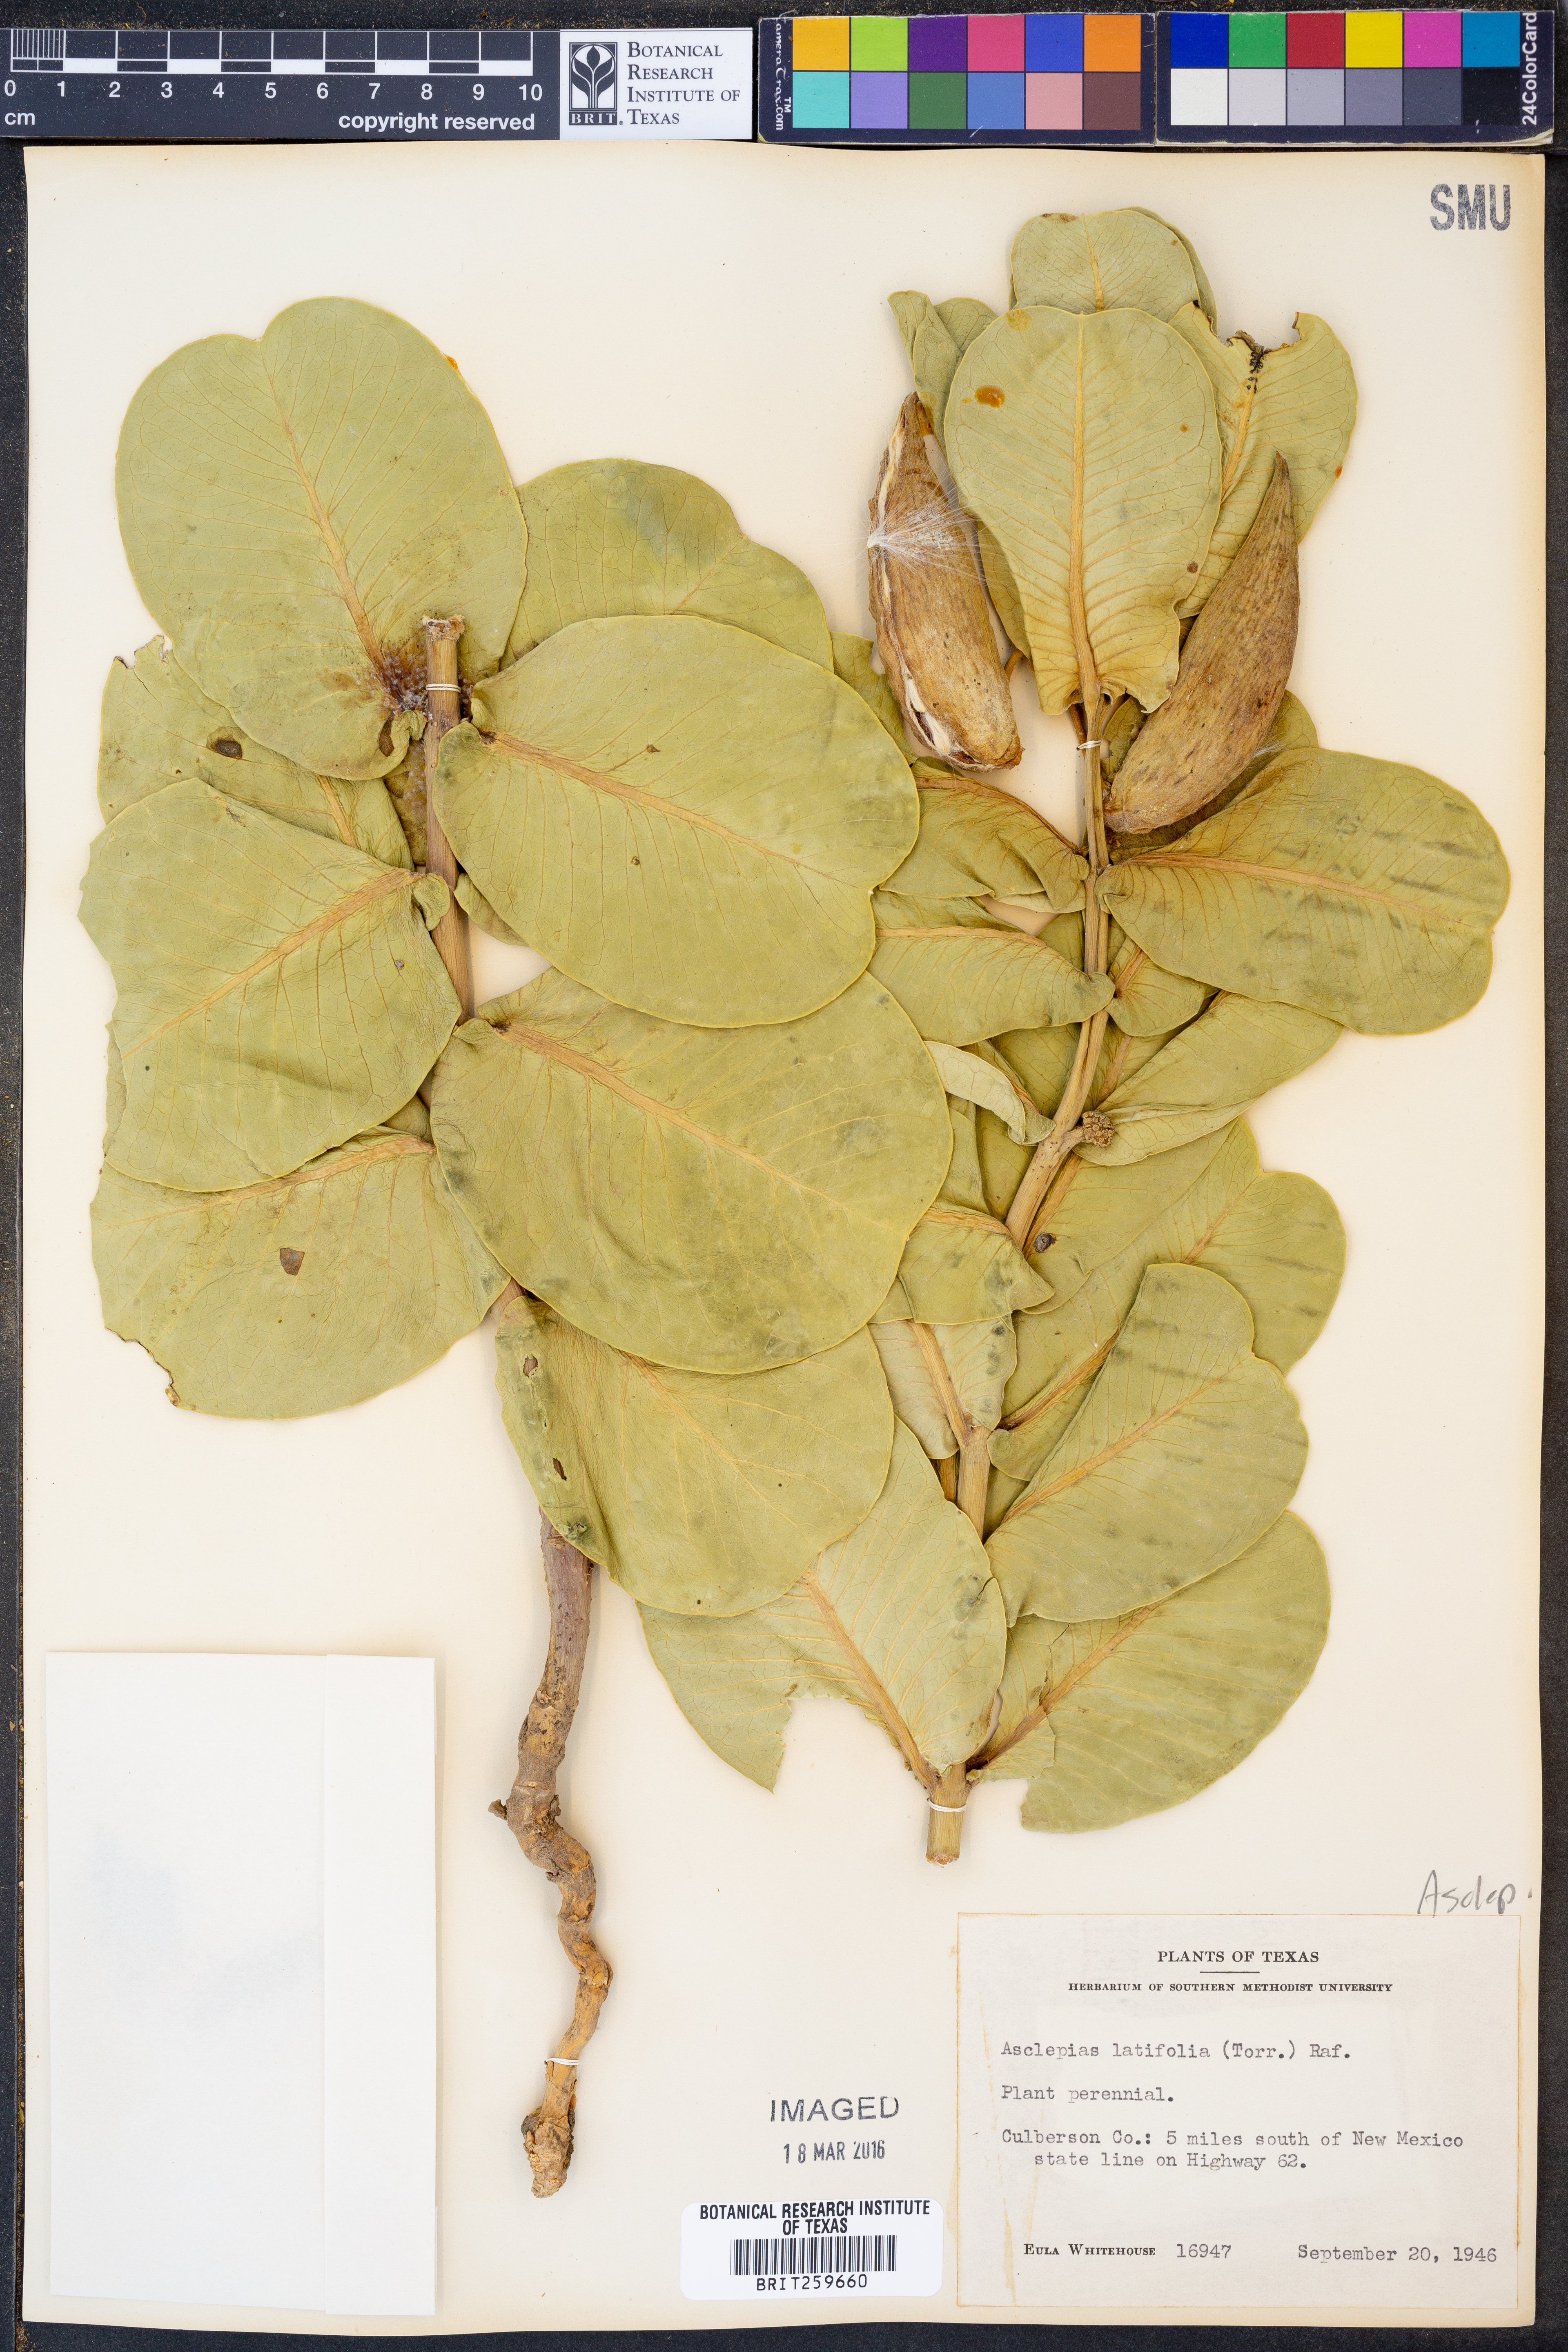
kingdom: Plantae
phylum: Tracheophyta
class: Magnoliopsida
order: Gentianales
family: Apocynaceae
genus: Asclepias
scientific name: Asclepias latifolia
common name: Broadleaf milkweed
